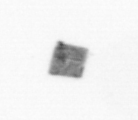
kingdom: Animalia
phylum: Arthropoda
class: Copepoda
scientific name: Copepoda
